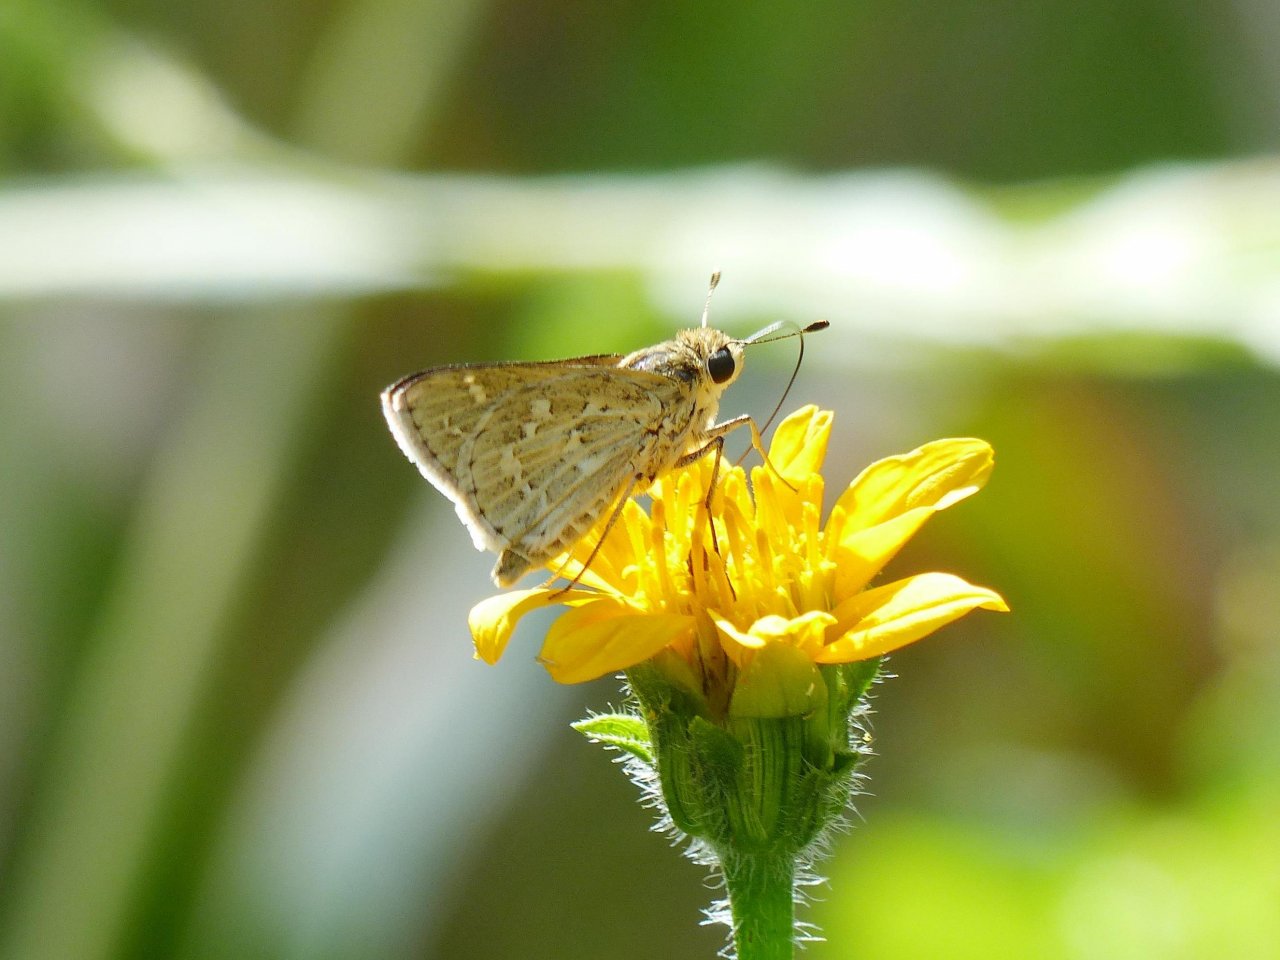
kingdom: Animalia
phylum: Arthropoda
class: Insecta
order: Lepidoptera
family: Hesperiidae
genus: Yvretta
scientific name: Yvretta carus
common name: Carus Skipper
